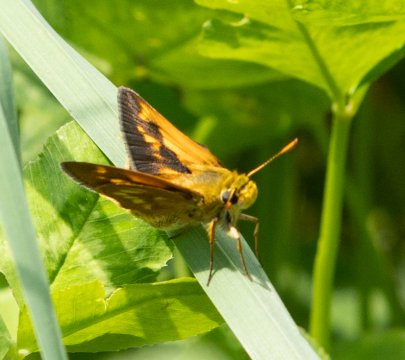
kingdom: Animalia
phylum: Arthropoda
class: Insecta
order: Lepidoptera
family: Hesperiidae
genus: Polites
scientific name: Polites
